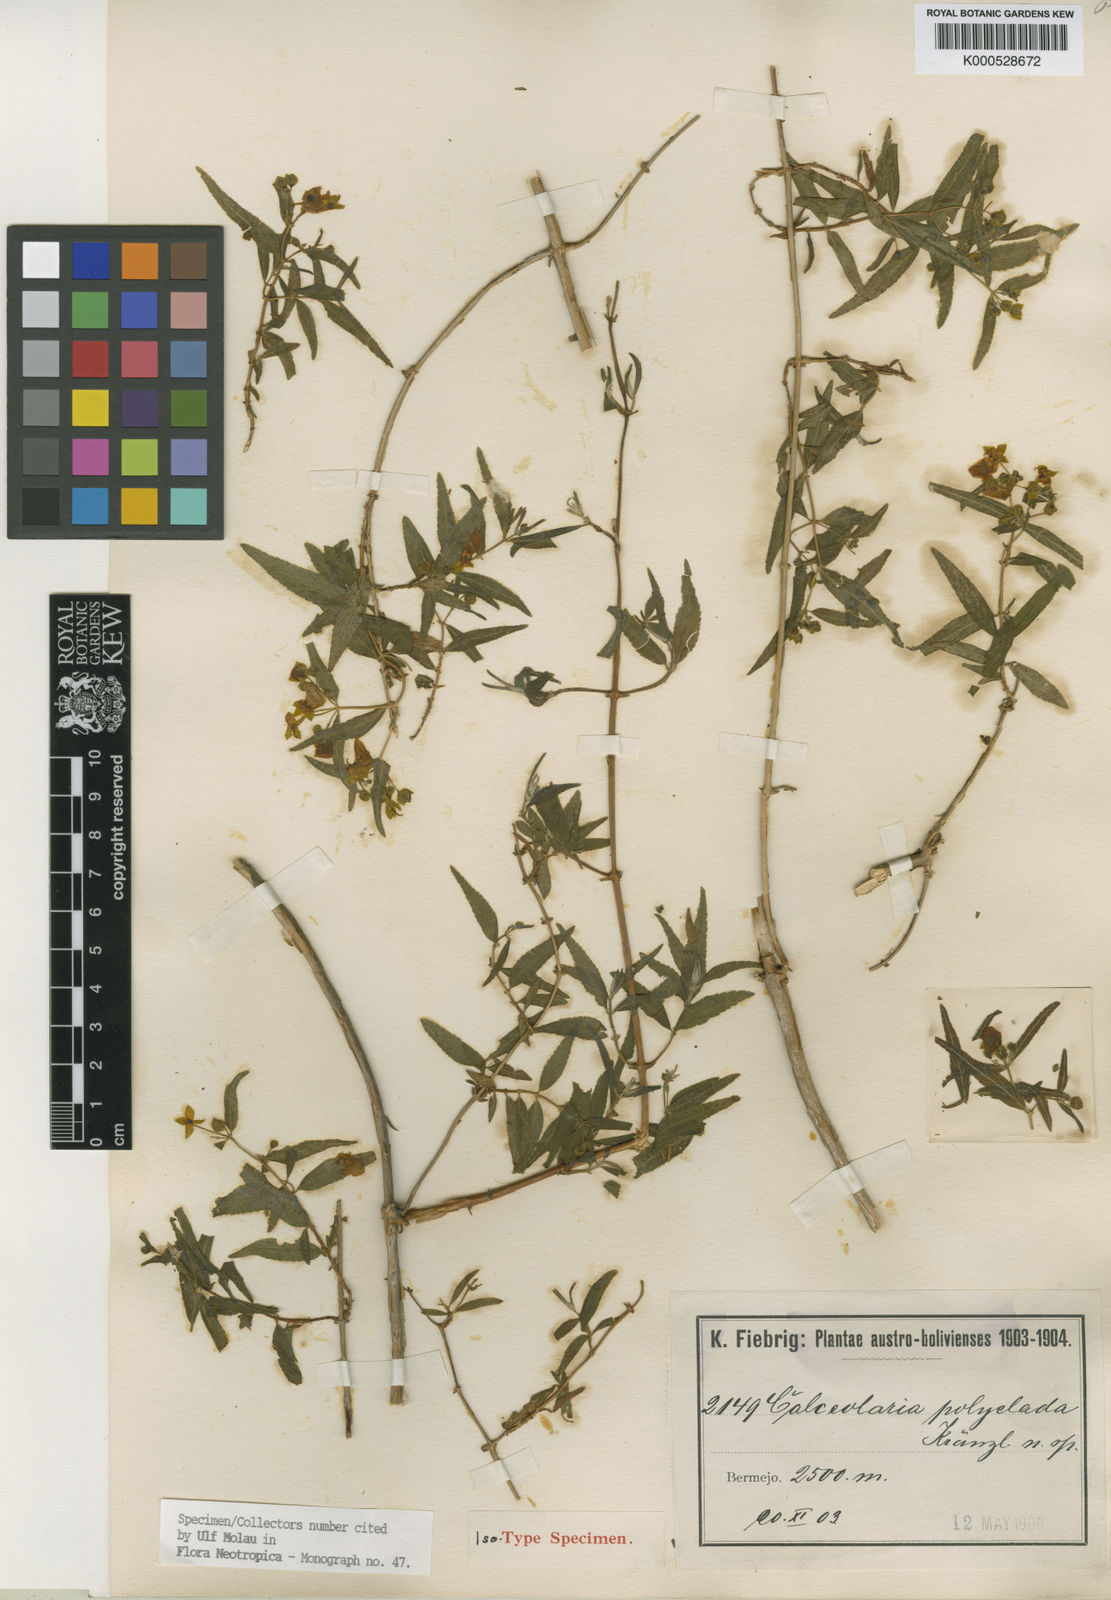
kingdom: Plantae
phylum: Tracheophyta
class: Magnoliopsida
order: Lamiales
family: Calceolariaceae
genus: Calceolaria
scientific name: Calceolaria polyclada
